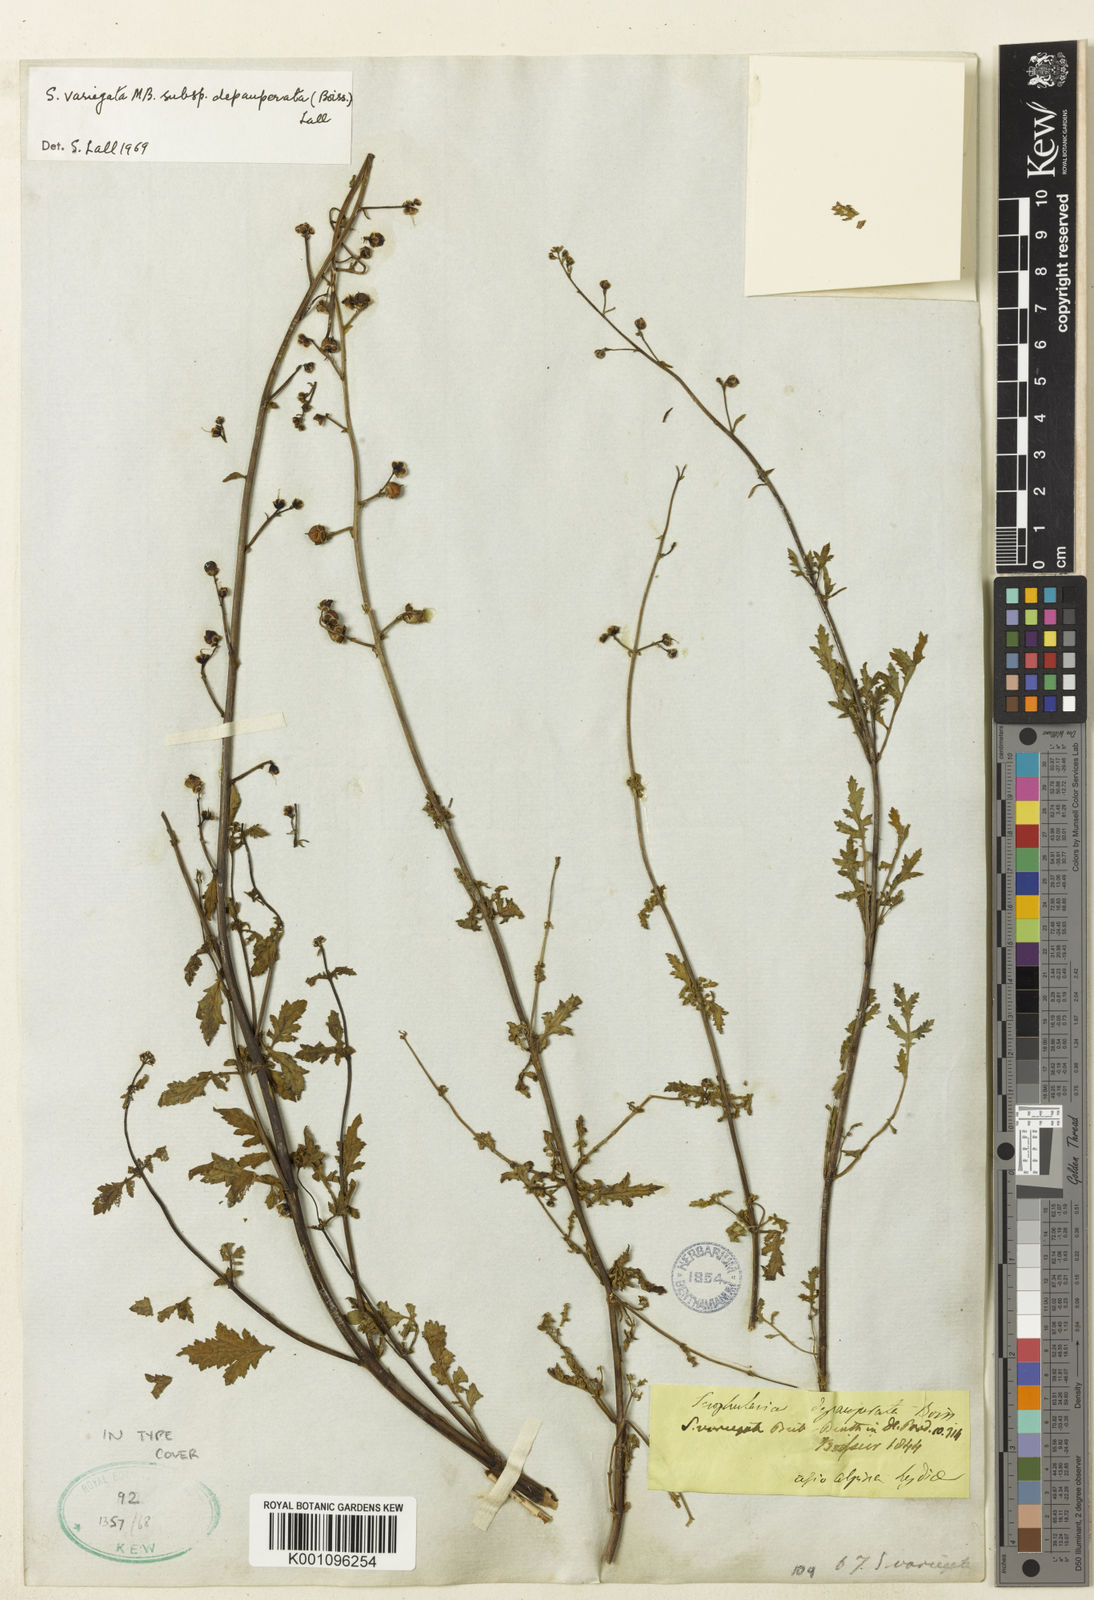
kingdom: Plantae
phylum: Tracheophyta
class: Magnoliopsida
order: Lamiales
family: Scrophulariaceae
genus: Scrophularia
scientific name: Scrophularia depauperata
